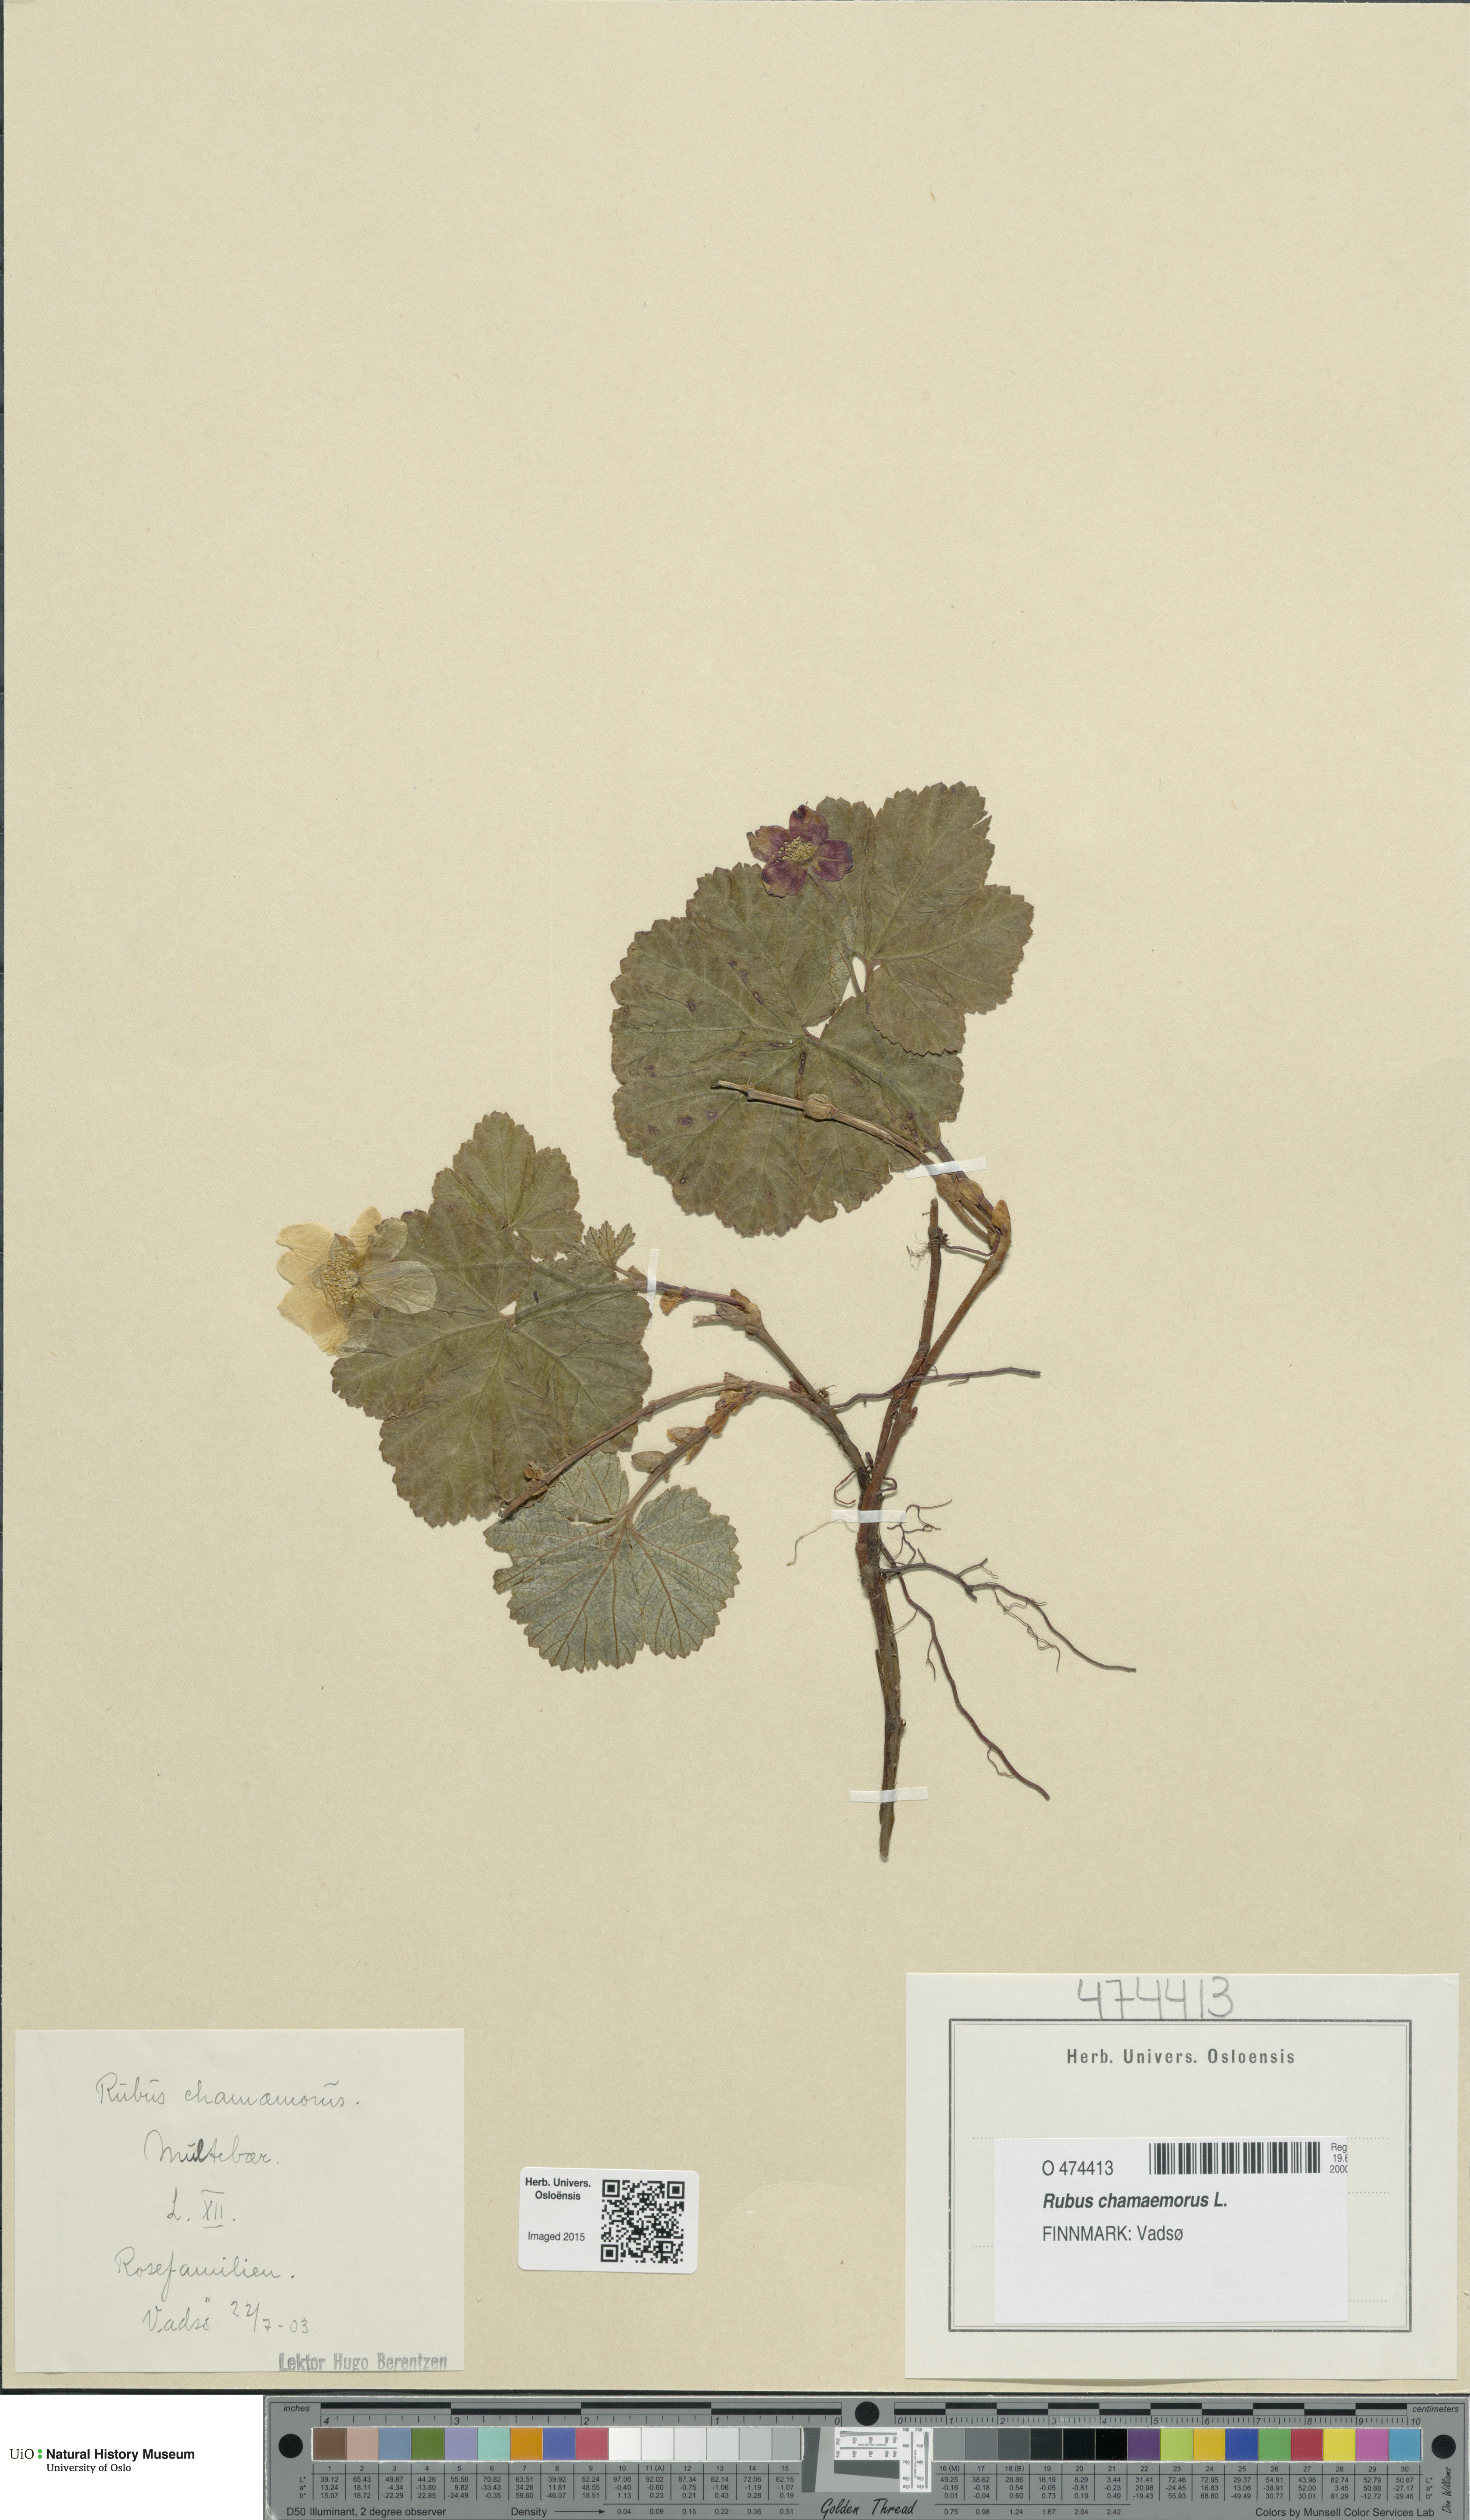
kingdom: Plantae
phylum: Tracheophyta
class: Magnoliopsida
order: Rosales
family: Rosaceae
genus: Rubus
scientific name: Rubus chamaemorus
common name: Cloudberry
